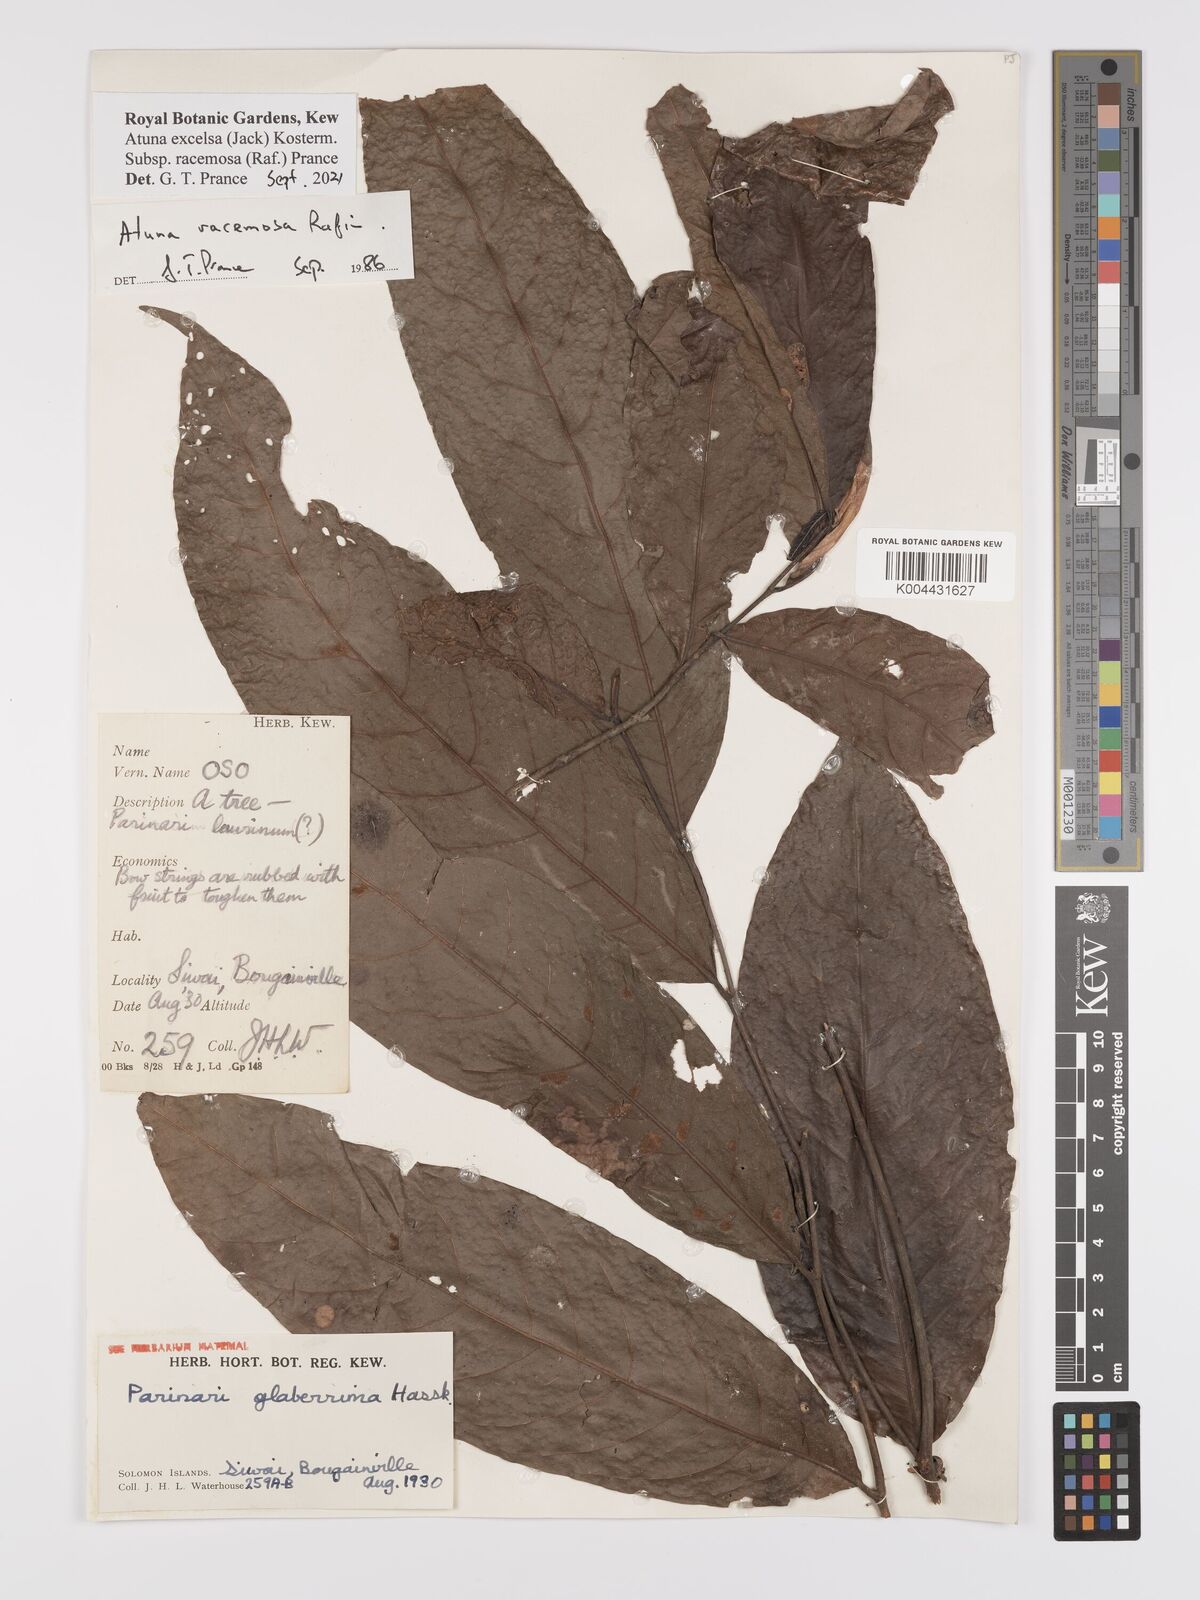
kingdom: Plantae
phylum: Tracheophyta
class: Magnoliopsida
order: Malpighiales
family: Chrysobalanaceae
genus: Atuna
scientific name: Atuna excelsa
